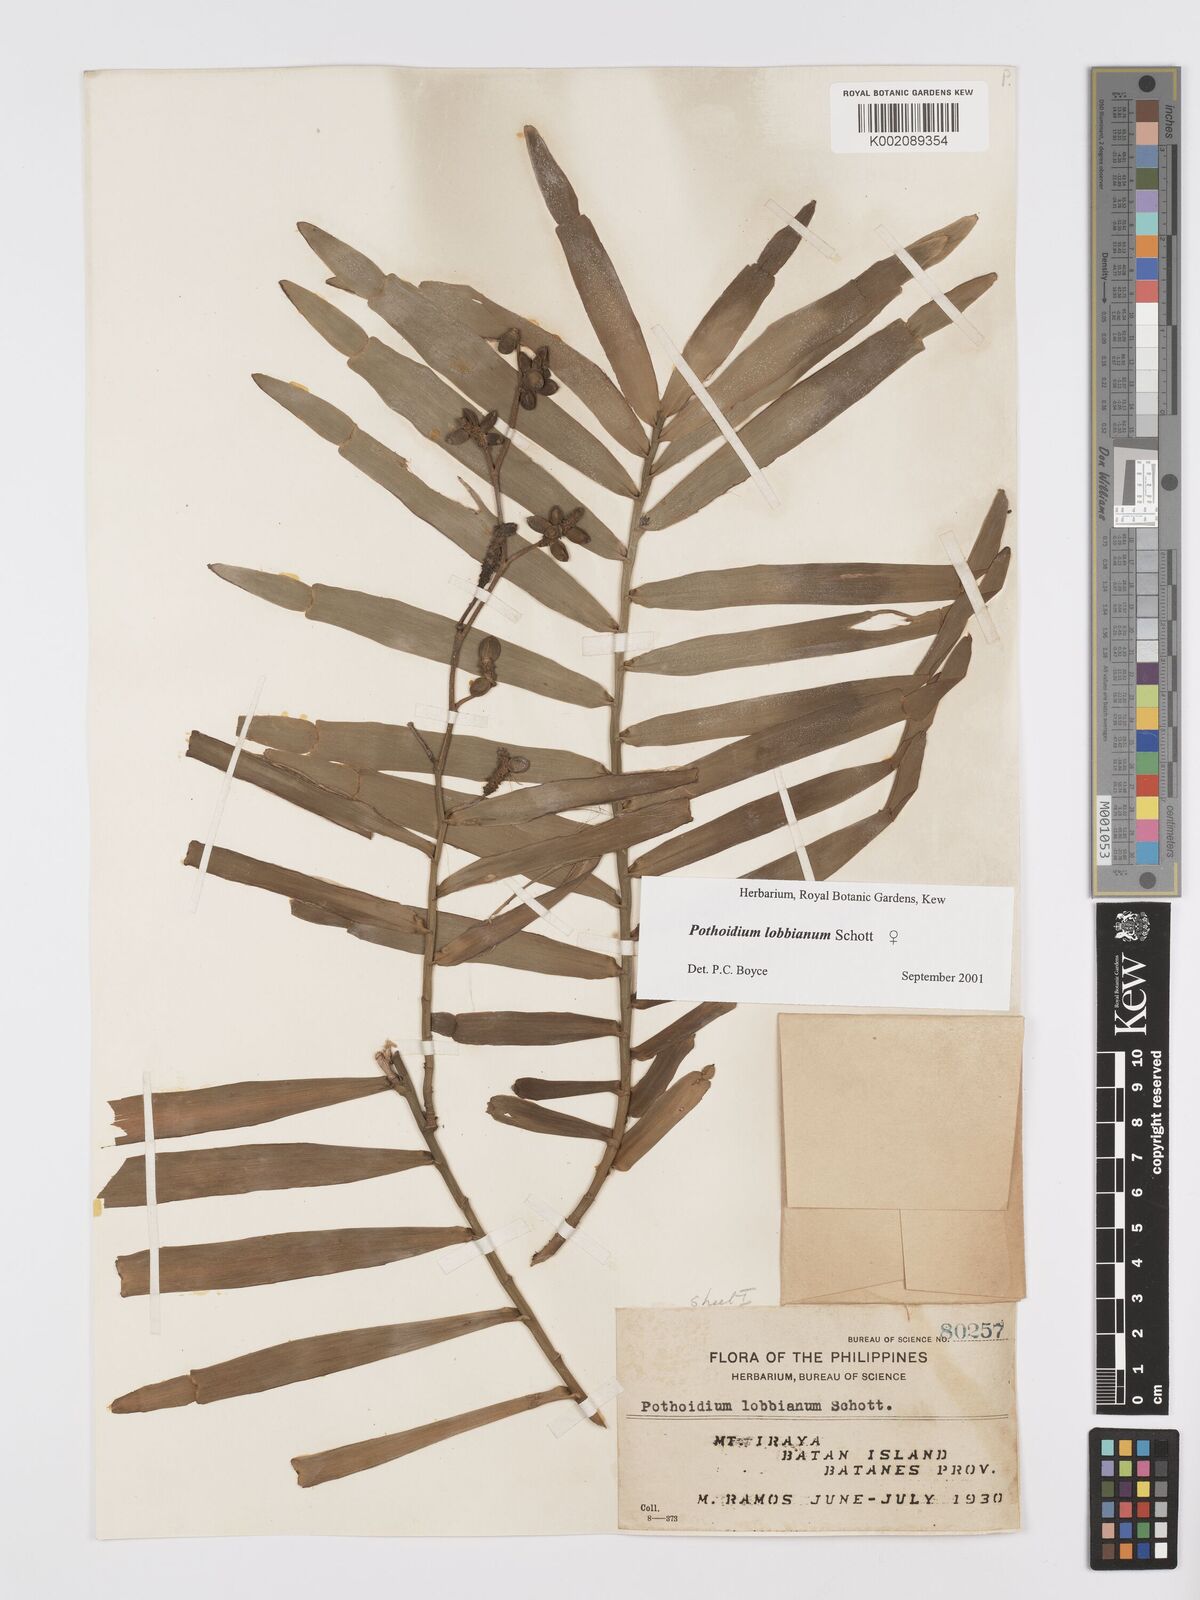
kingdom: Plantae
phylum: Tracheophyta
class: Liliopsida
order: Alismatales
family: Araceae
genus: Pothoidium
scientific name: Pothoidium lobbianum
